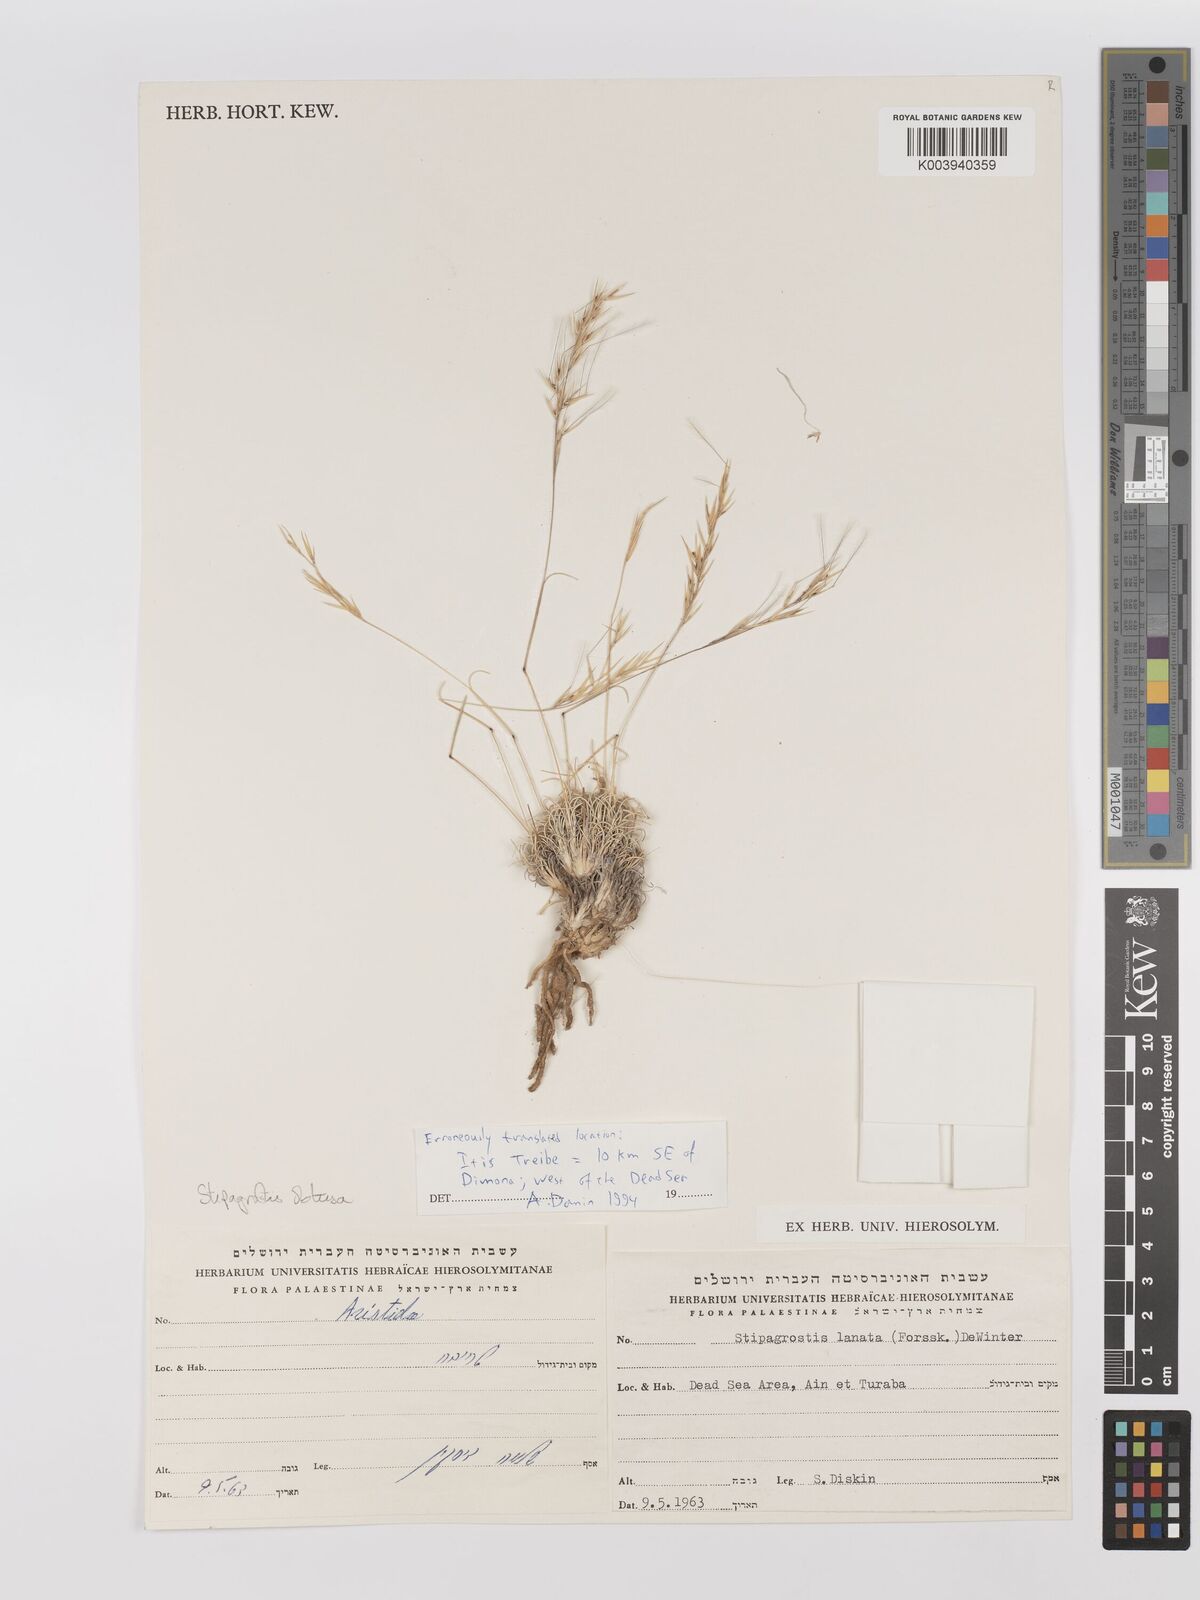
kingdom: Plantae
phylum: Tracheophyta
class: Liliopsida
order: Poales
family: Poaceae
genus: Stipagrostis
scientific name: Stipagrostis obtusa
